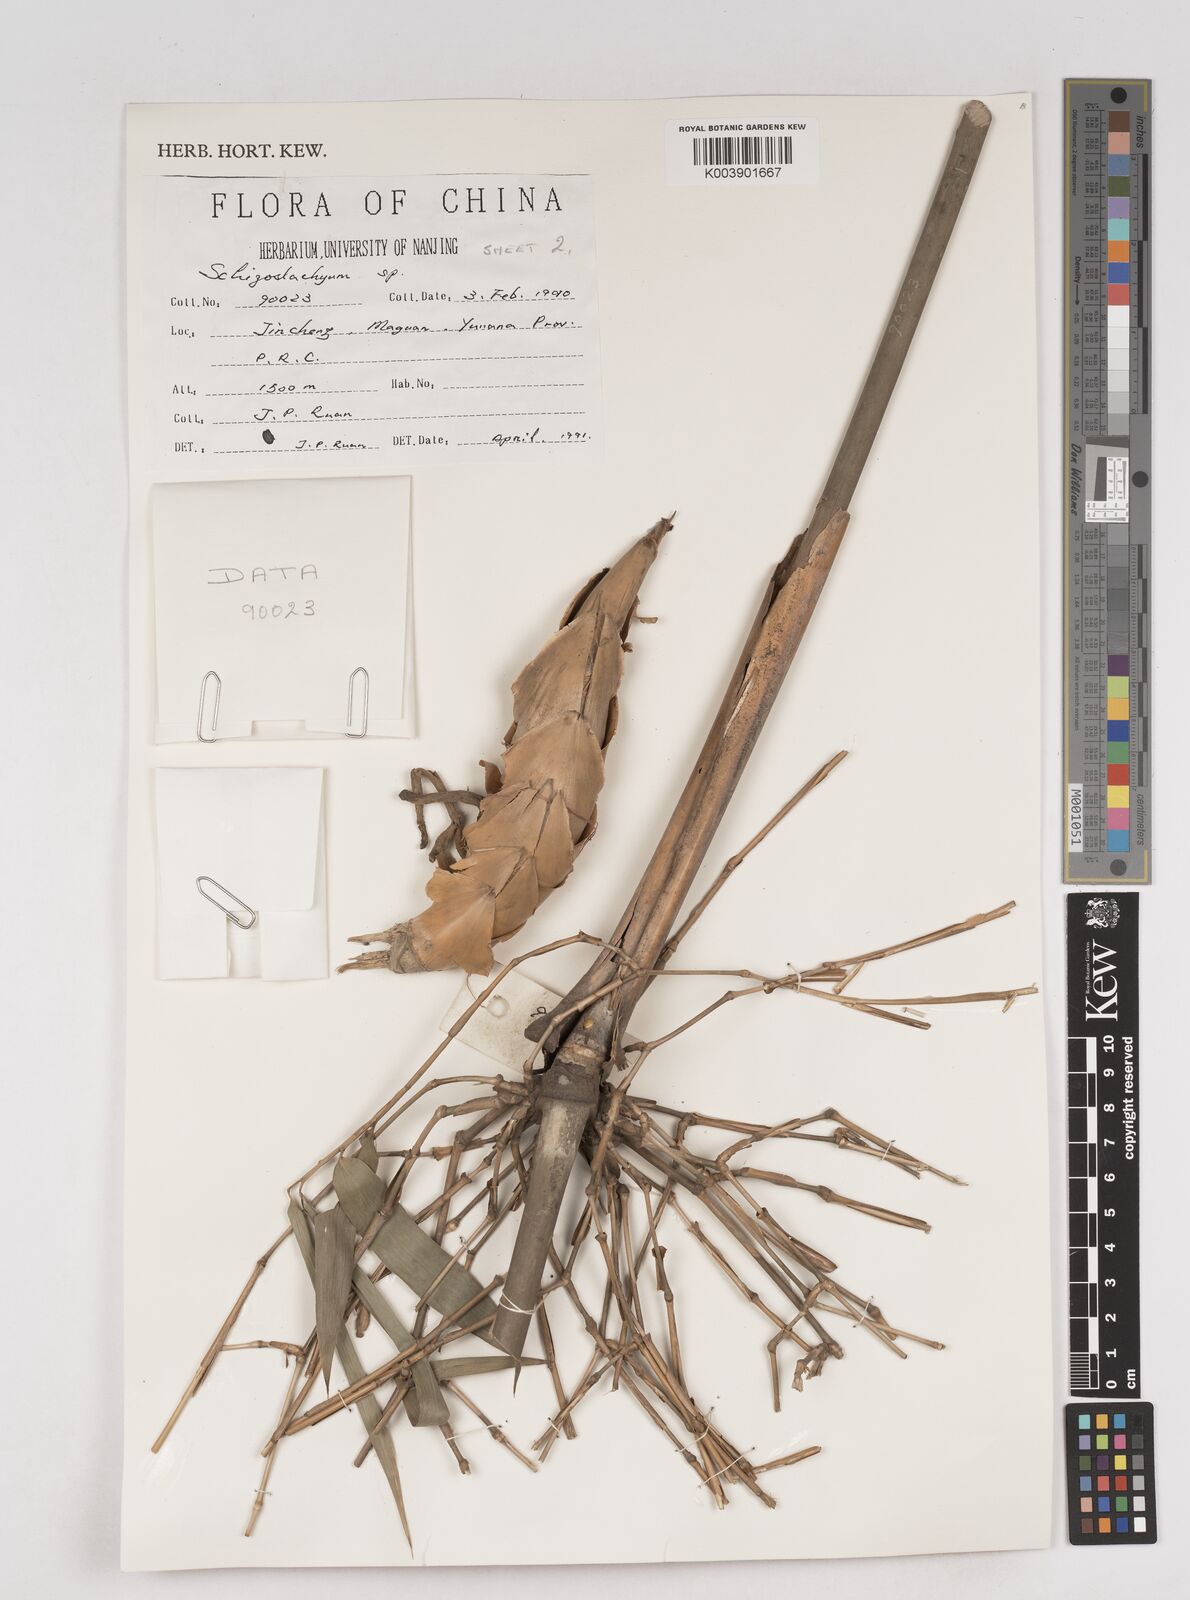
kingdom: Plantae
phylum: Tracheophyta
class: Liliopsida
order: Poales
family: Poaceae
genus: Schizostachyum
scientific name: Schizostachyum
